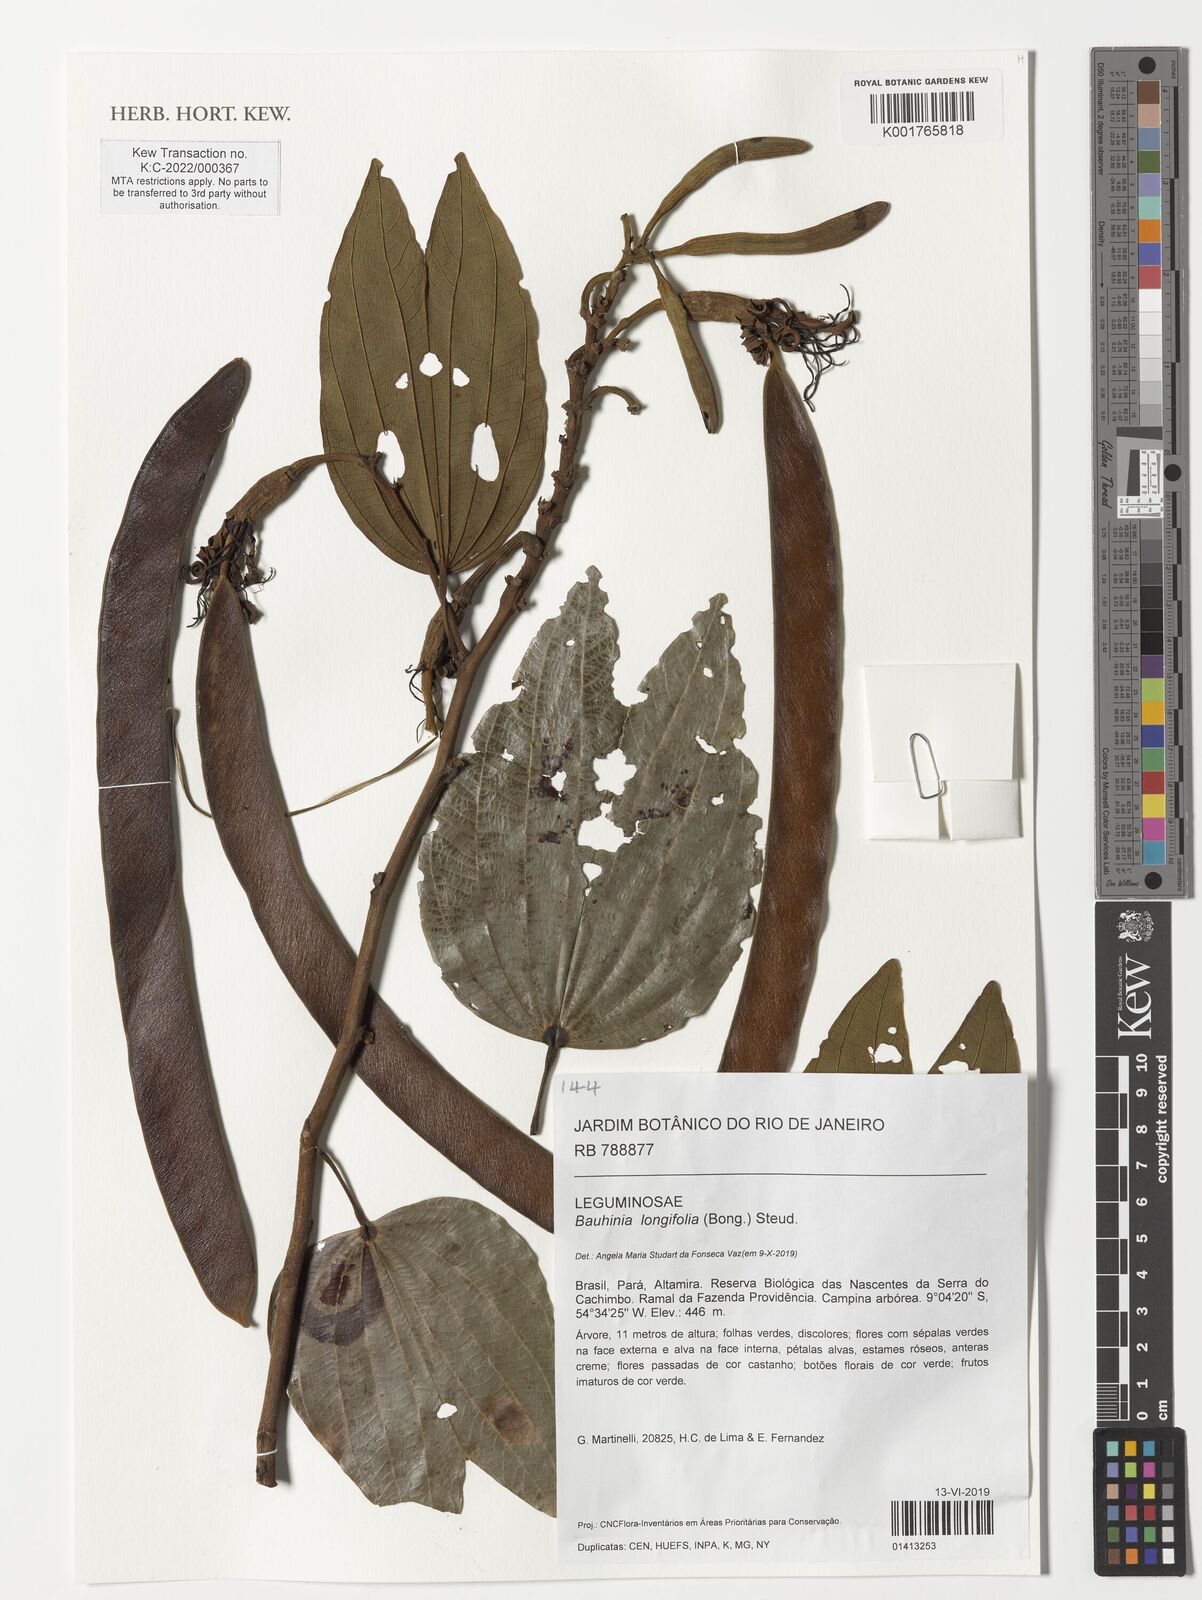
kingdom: Plantae
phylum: Tracheophyta
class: Magnoliopsida
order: Fabales
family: Fabaceae
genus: Bauhinia
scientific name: Bauhinia longifolia
